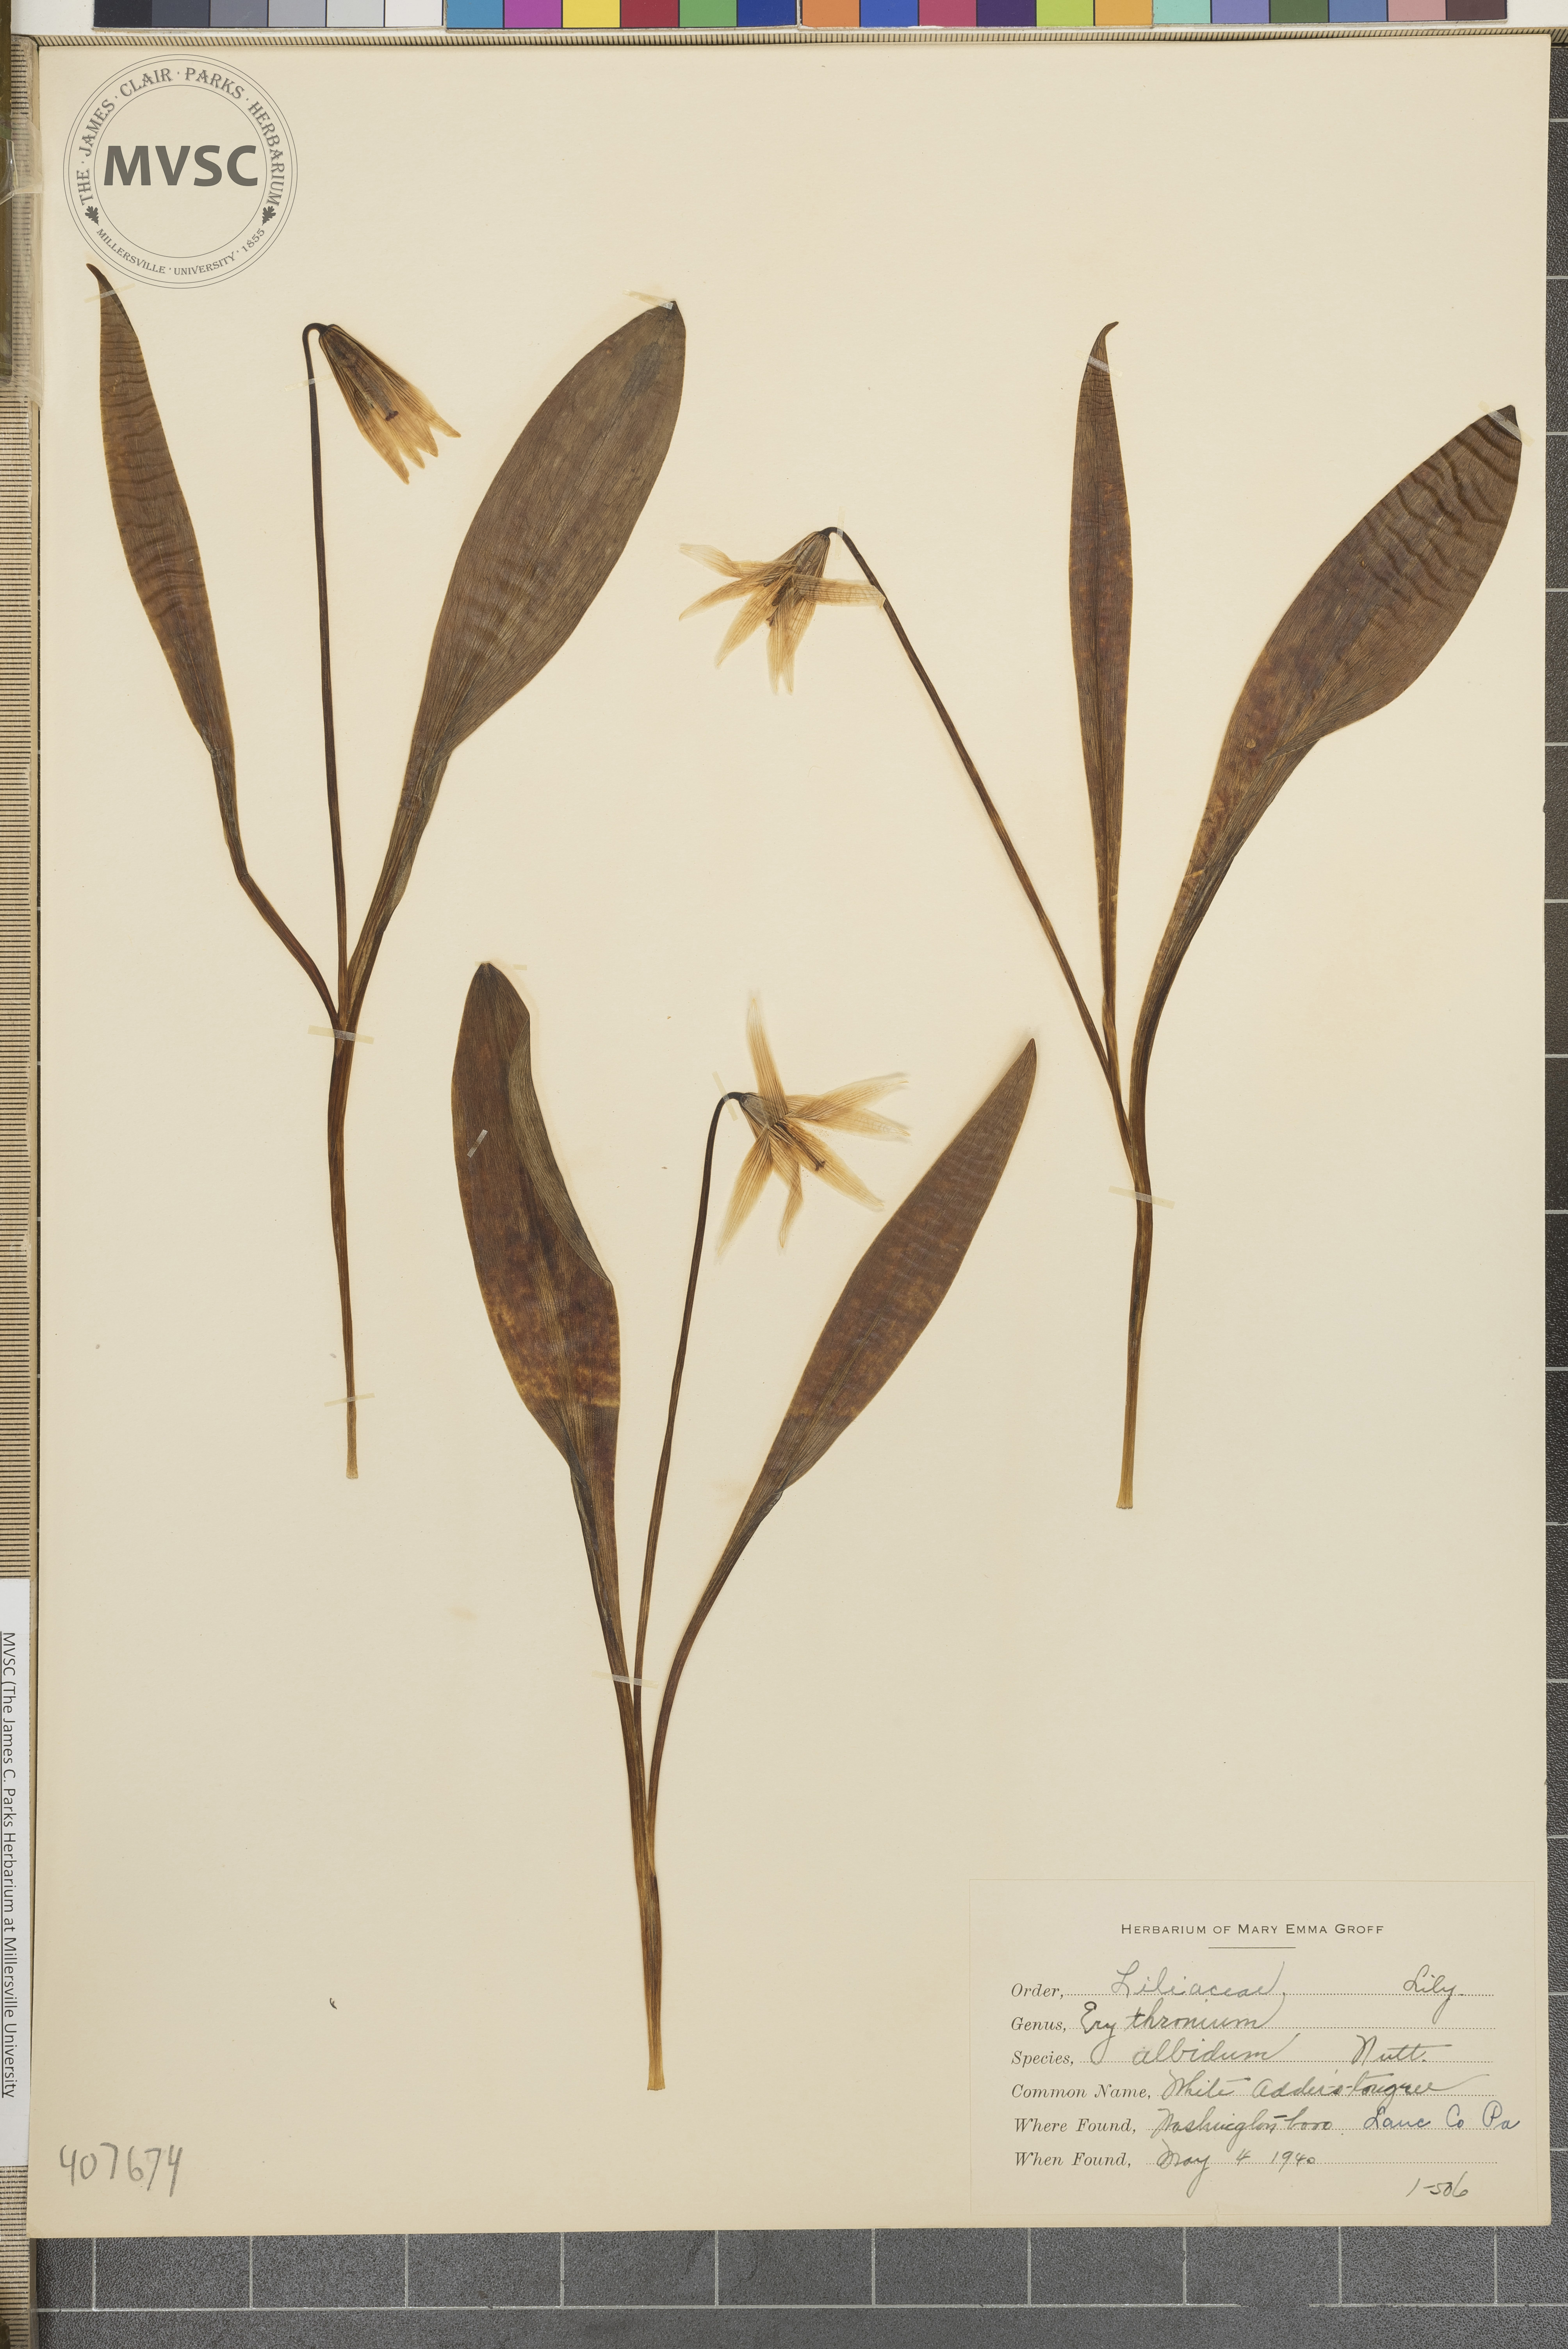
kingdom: Plantae
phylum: Tracheophyta
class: Liliopsida
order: Liliales
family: Liliaceae
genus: Erythronium
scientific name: Erythronium albidum
